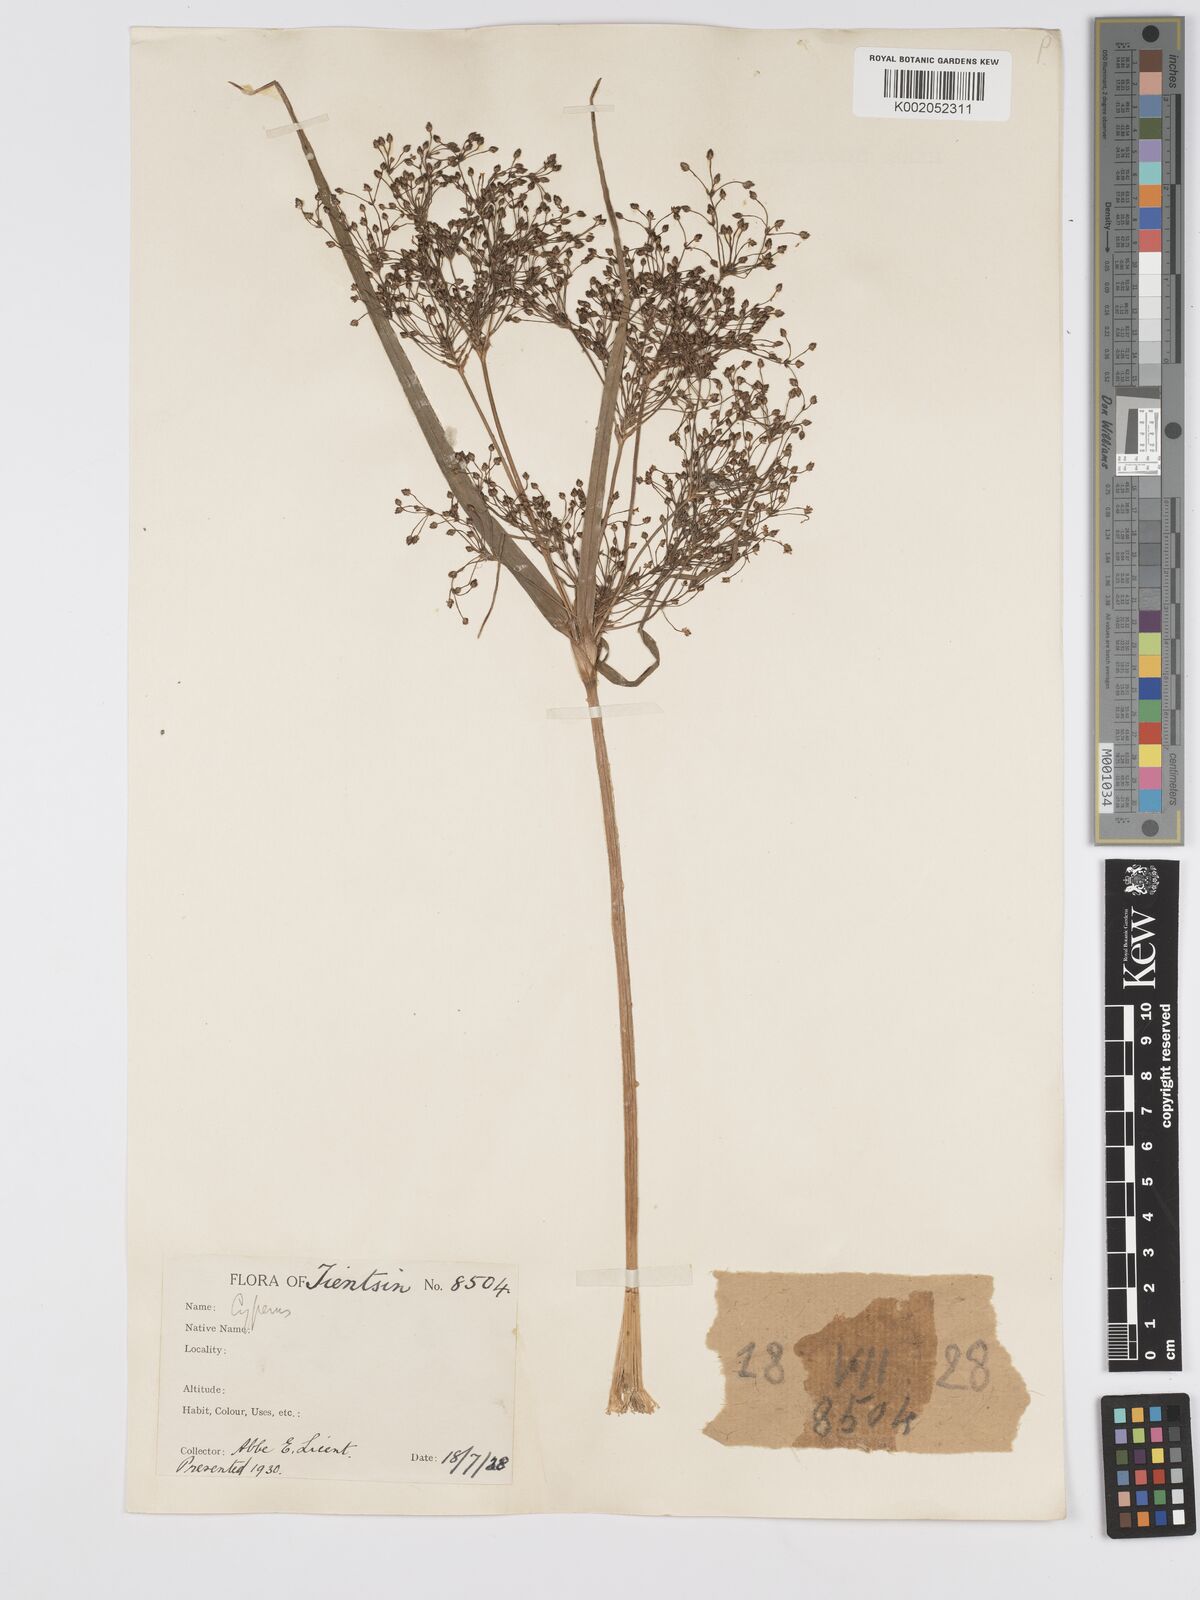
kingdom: Plantae
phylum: Tracheophyta
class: Liliopsida
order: Poales
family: Cyperaceae
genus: Scirpus
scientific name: Scirpus cyperinus
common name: Black-sheathed bulrush
